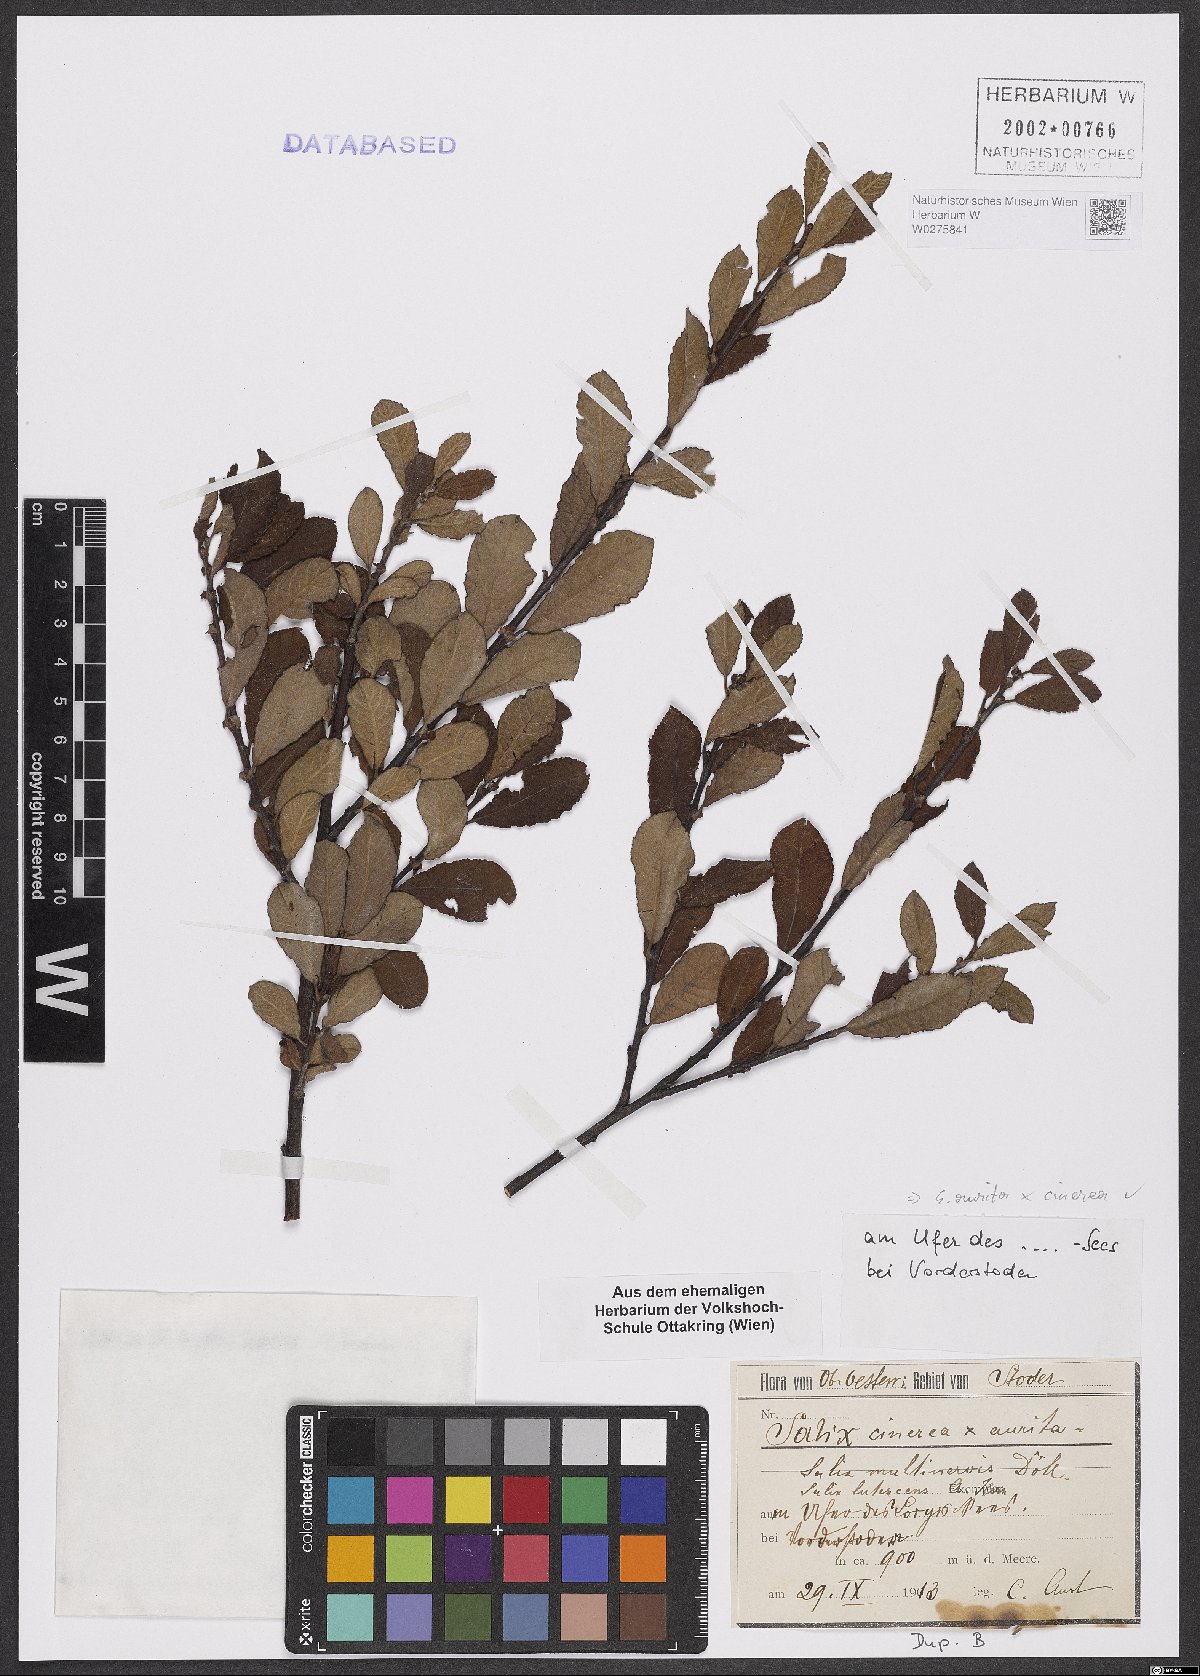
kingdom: Plantae
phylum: Tracheophyta
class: Magnoliopsida
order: Malpighiales
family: Salicaceae
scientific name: Salicaceae
